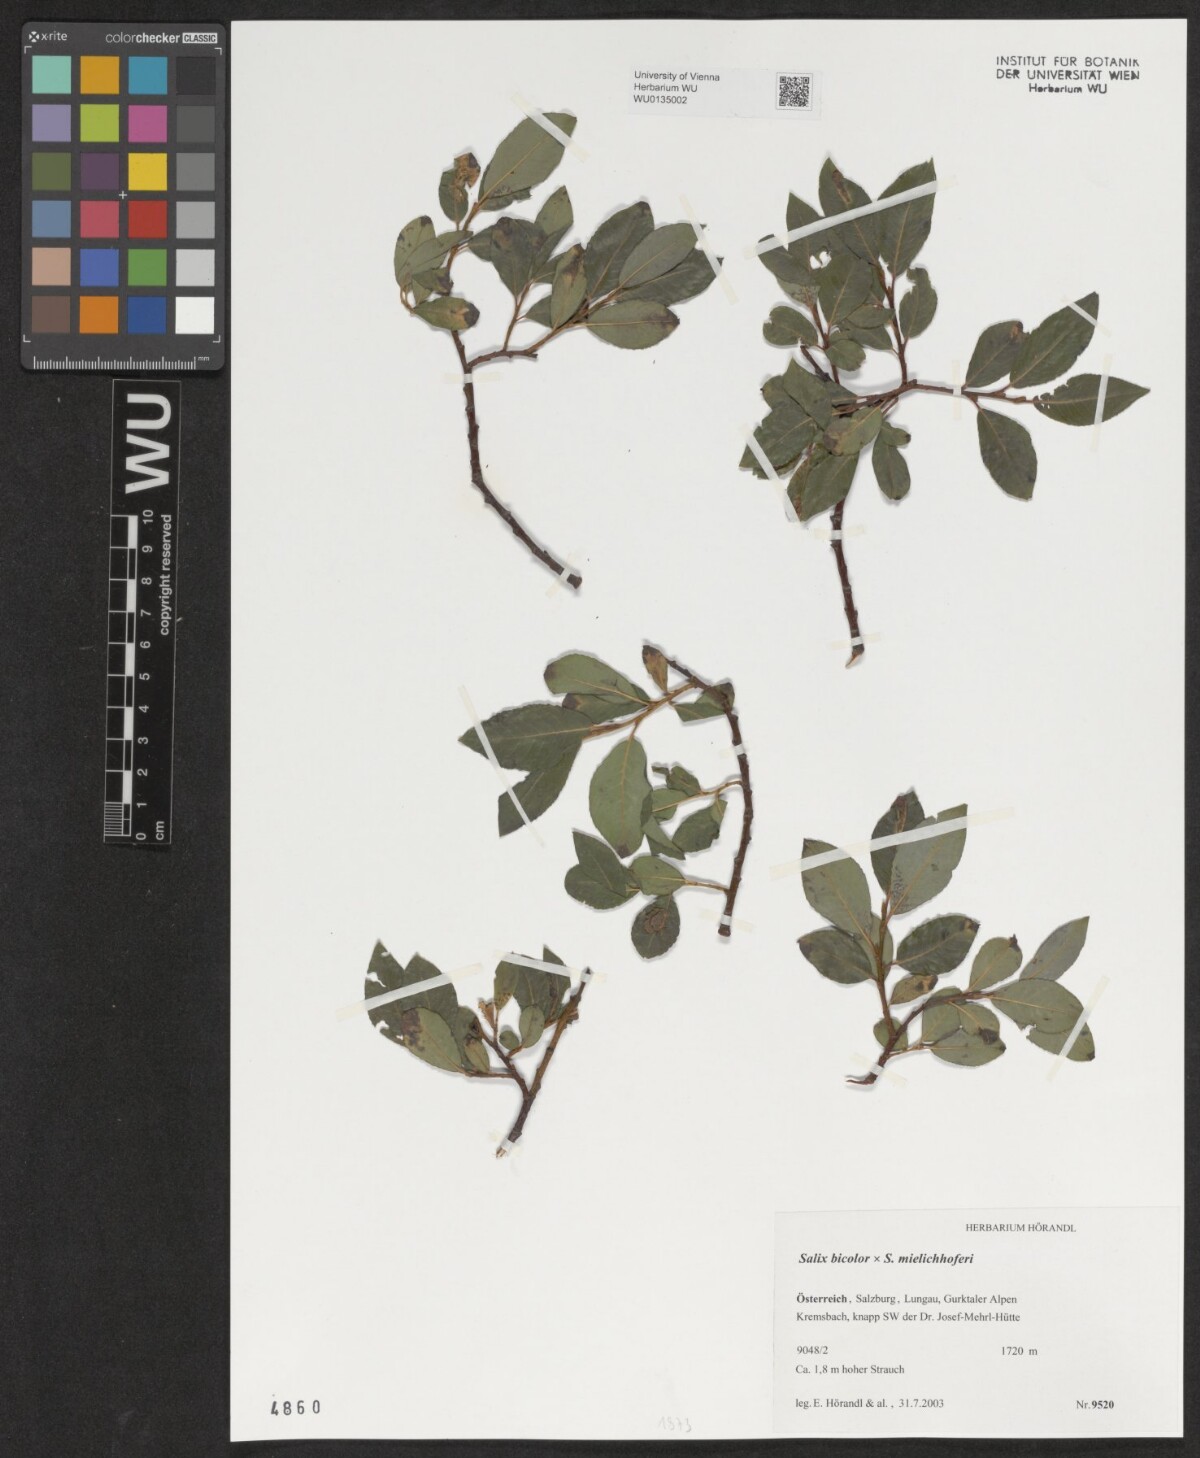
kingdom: Plantae
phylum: Tracheophyta
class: Magnoliopsida
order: Malpighiales
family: Salicaceae
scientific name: Salicaceae
